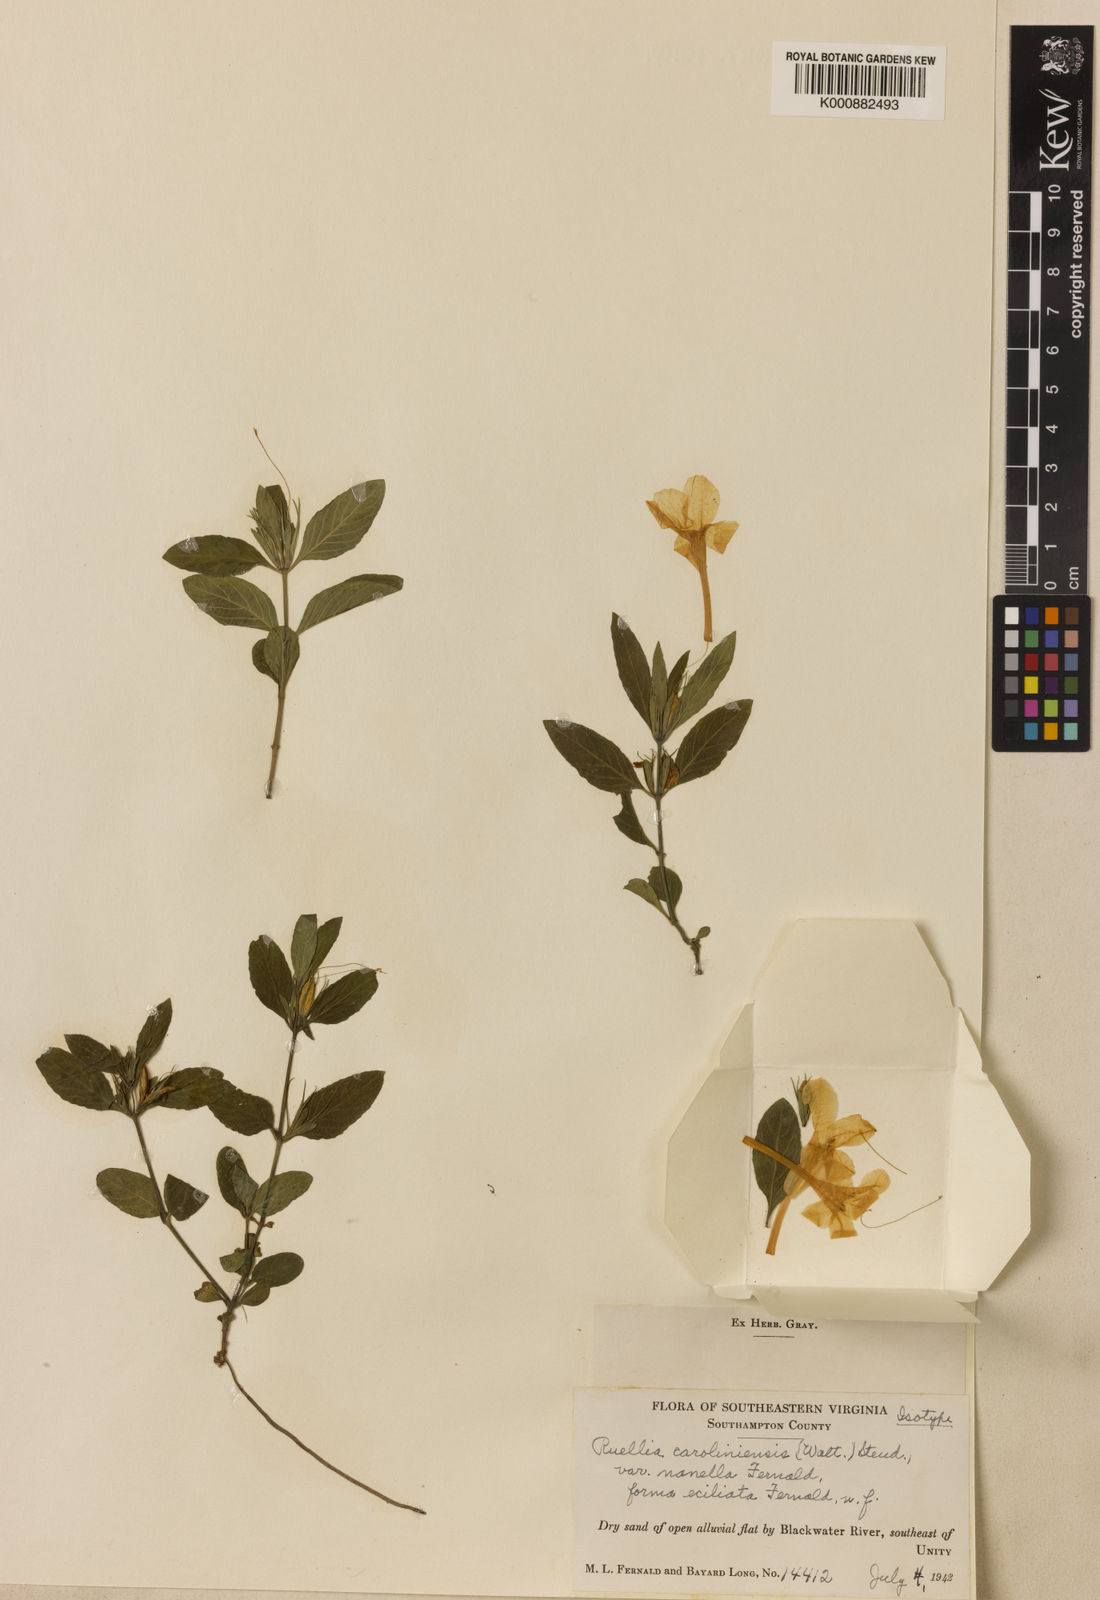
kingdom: Plantae
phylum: Tracheophyta
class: Magnoliopsida
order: Lamiales
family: Acanthaceae
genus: Ruellia
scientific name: Ruellia caroliniensis
